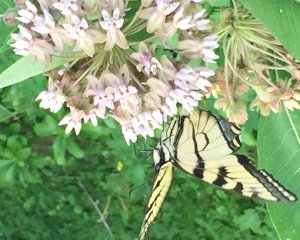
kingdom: Animalia
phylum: Arthropoda
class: Insecta
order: Lepidoptera
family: Papilionidae
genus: Pterourus
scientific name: Pterourus
